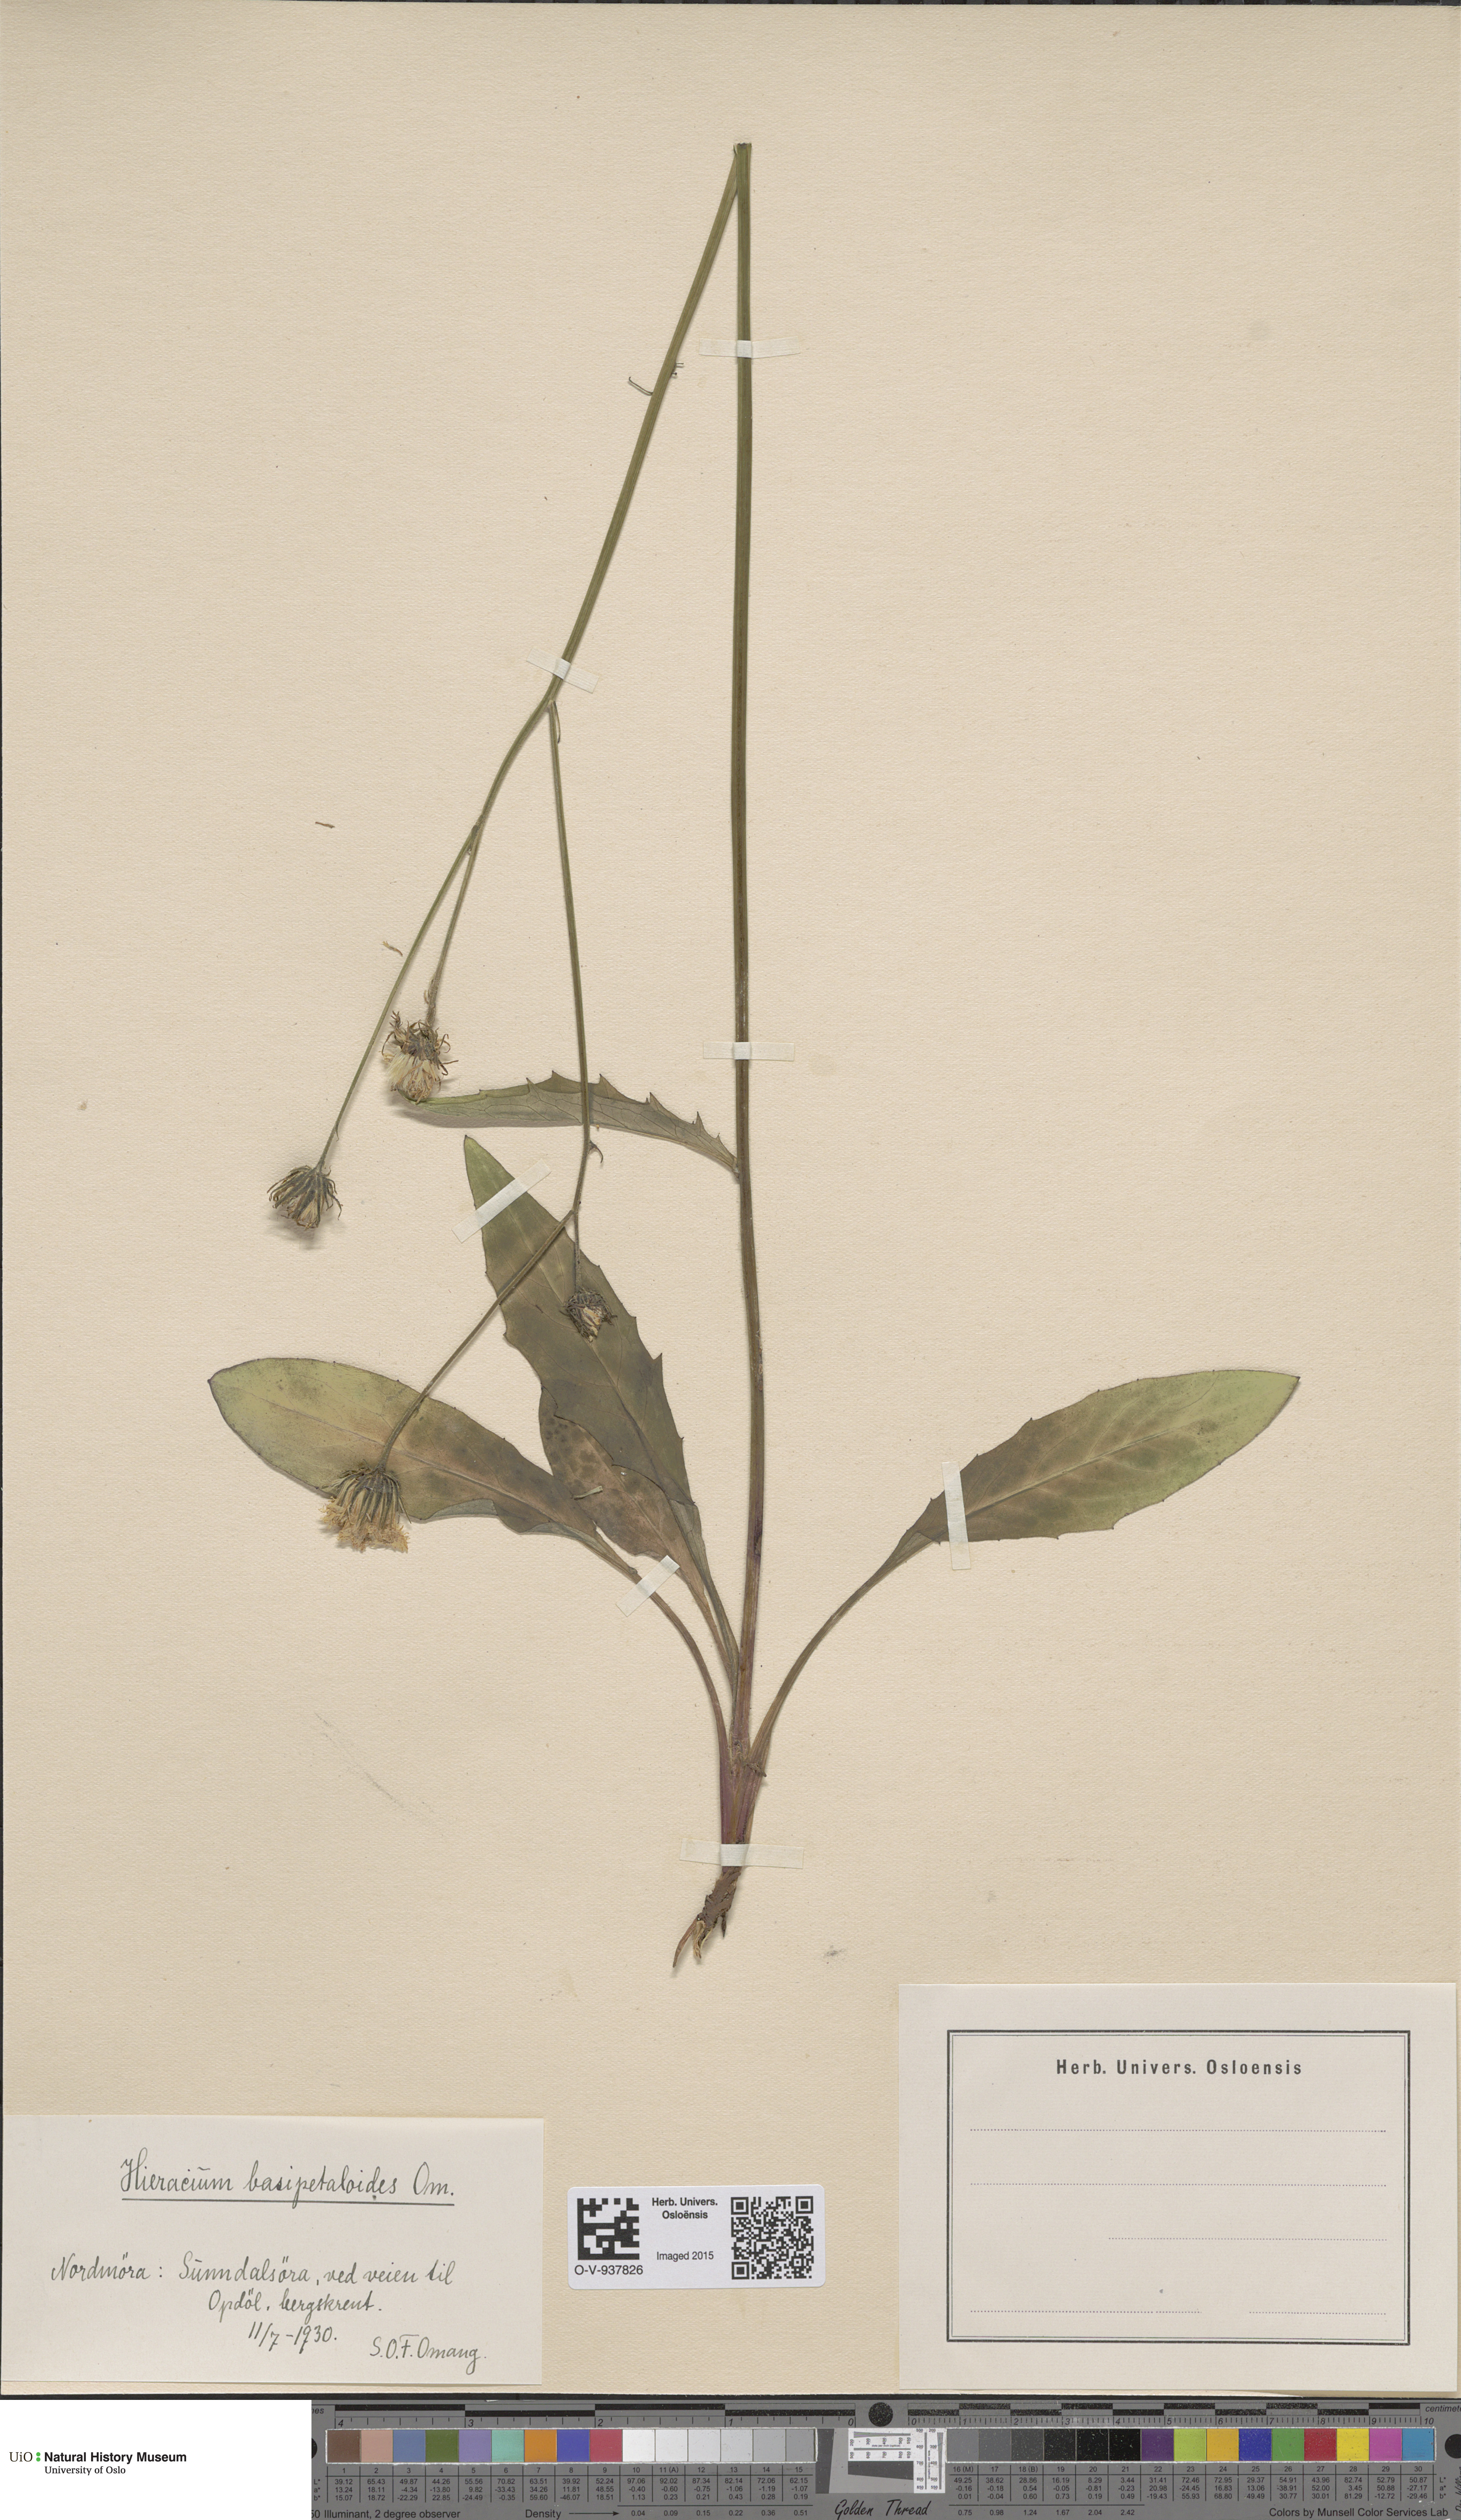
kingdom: Plantae
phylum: Tracheophyta
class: Magnoliopsida
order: Asterales
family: Asteraceae
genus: Hieracium
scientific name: Hieracium
